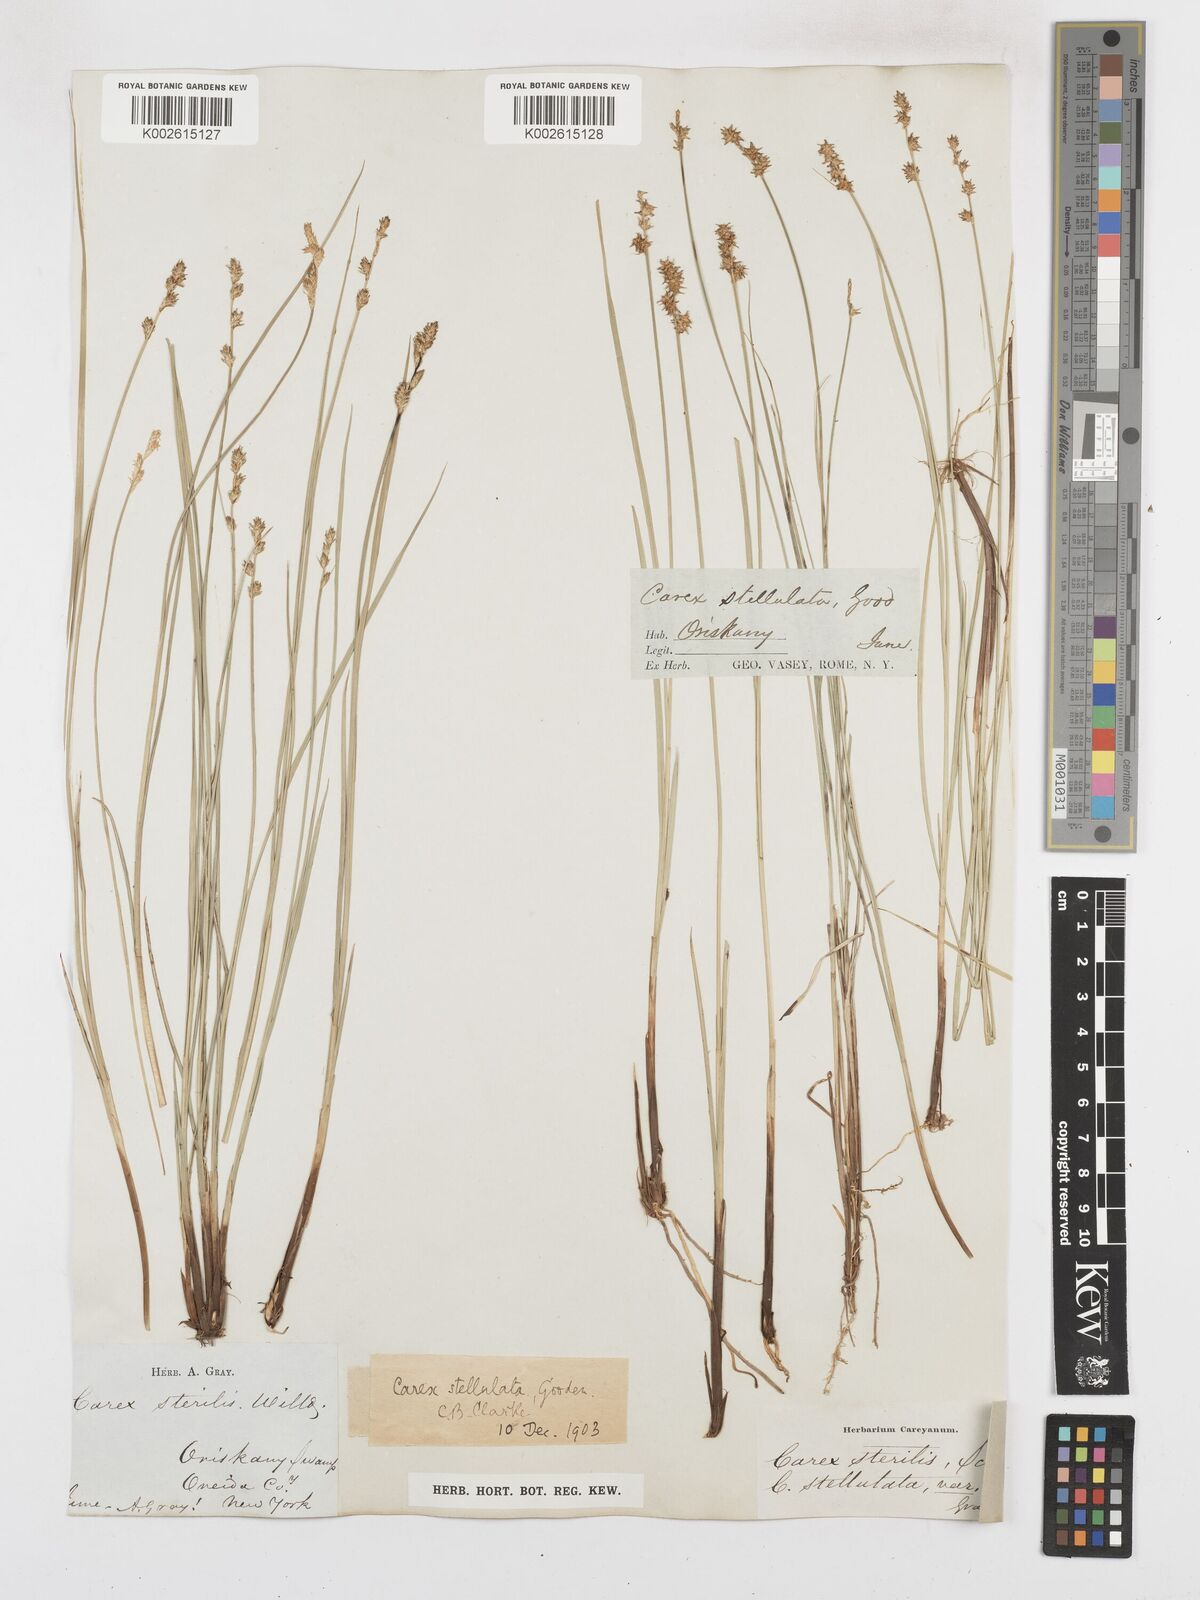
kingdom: Plantae
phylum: Tracheophyta
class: Liliopsida
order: Poales
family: Cyperaceae
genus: Carex
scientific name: Carex echinata
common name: Star sedge
